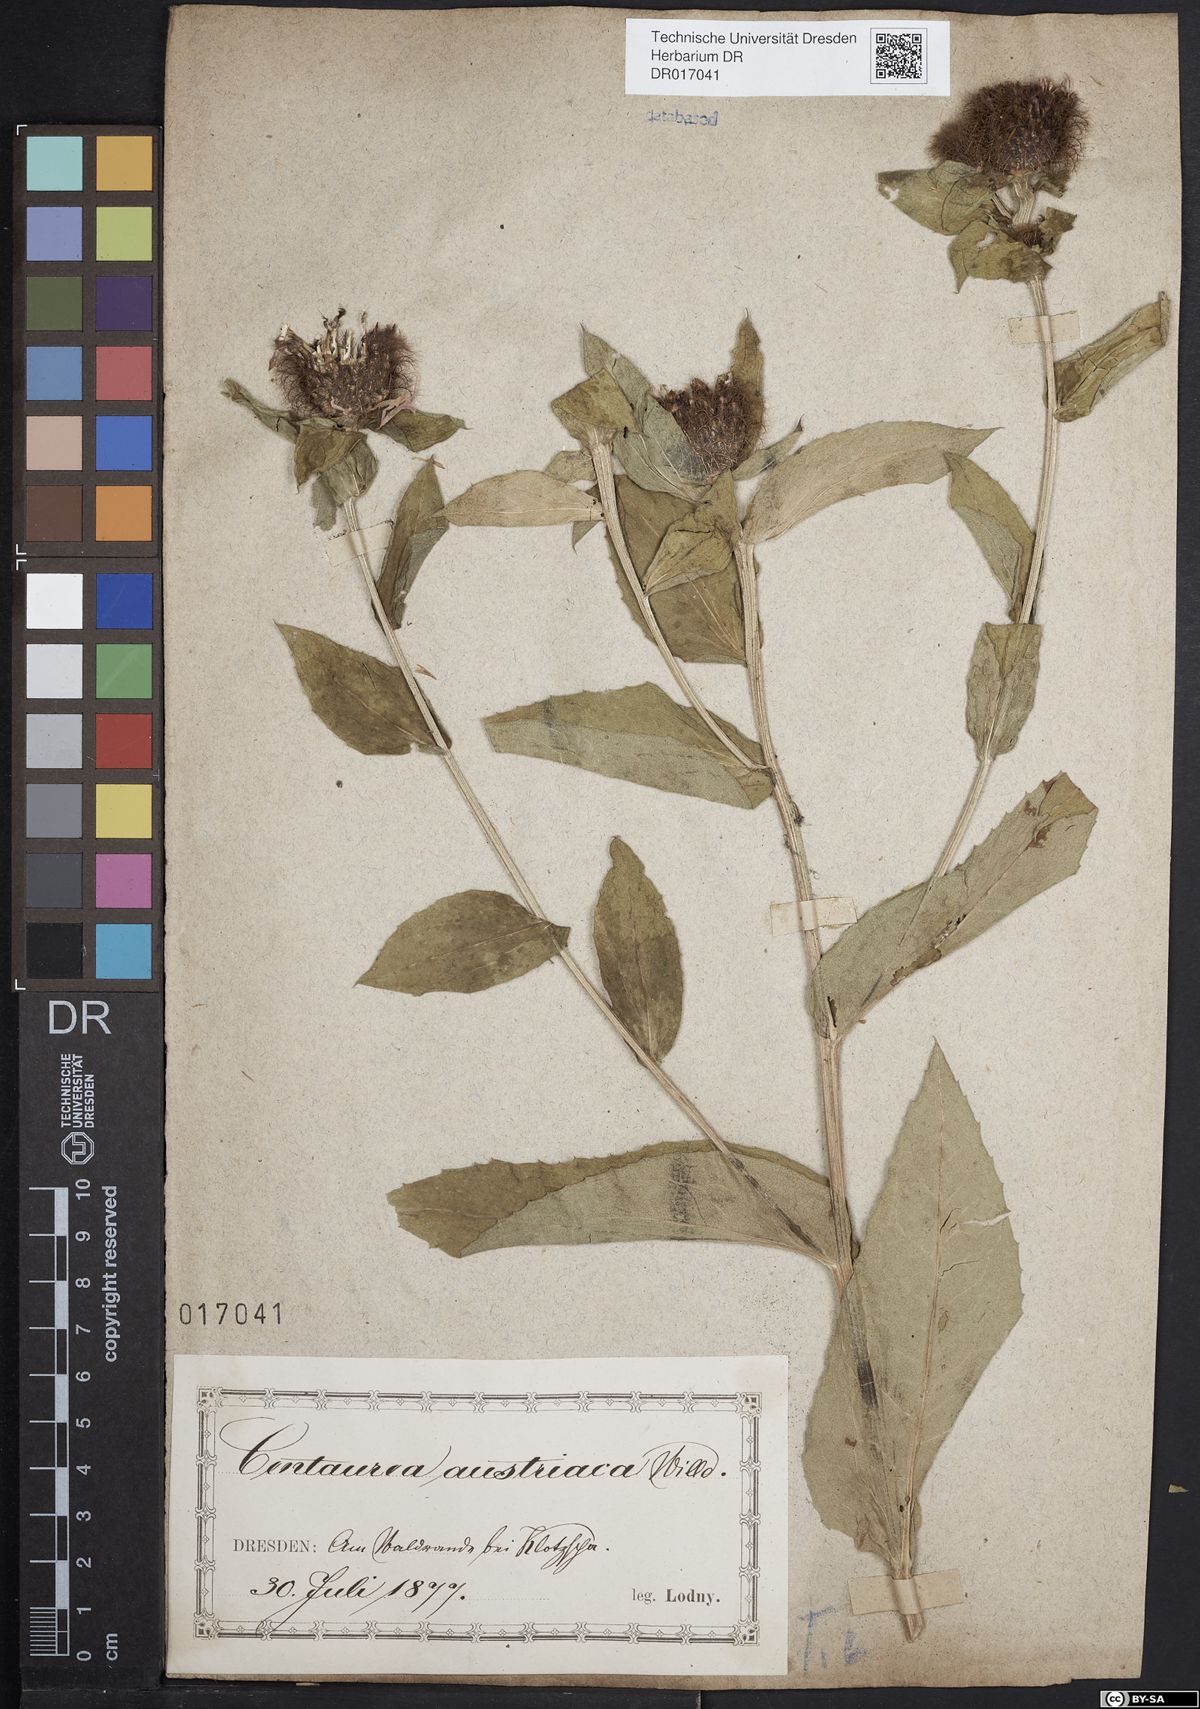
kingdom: Plantae
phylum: Tracheophyta
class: Magnoliopsida
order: Asterales
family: Asteraceae
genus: Centaurea
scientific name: Centaurea pseudophrygia
